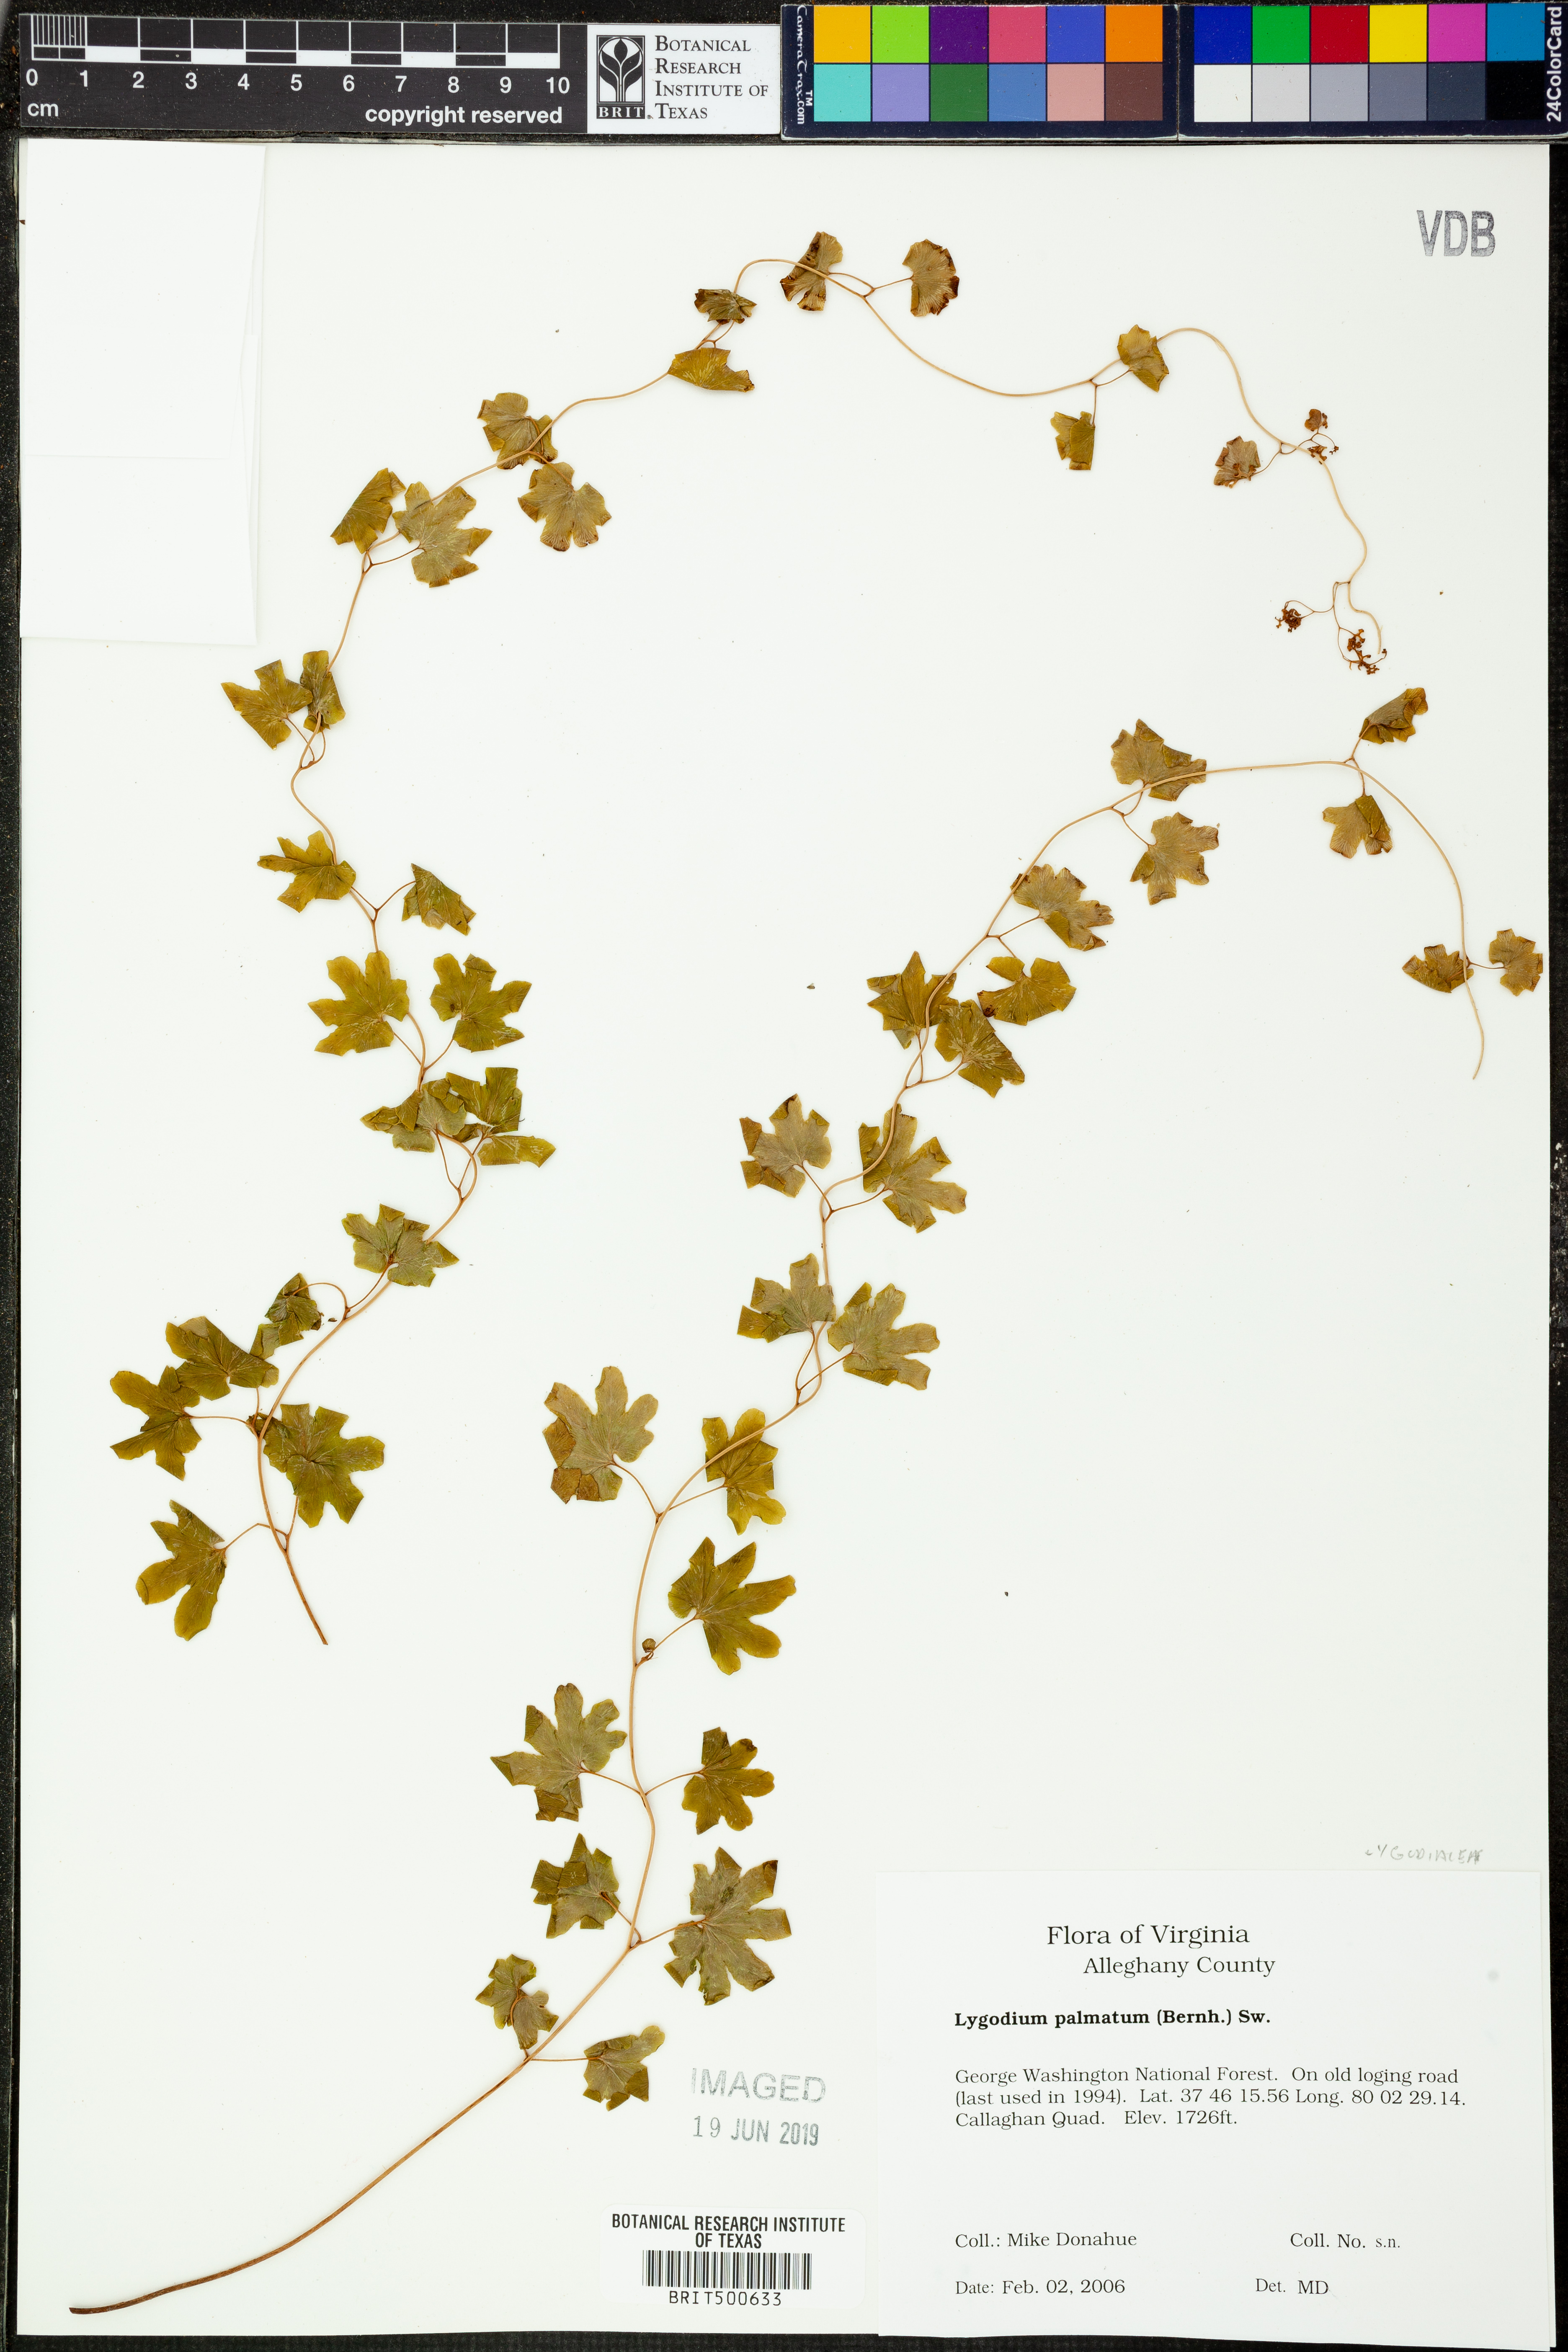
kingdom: Plantae
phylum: Tracheophyta
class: Polypodiopsida
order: Schizaeales
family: Lygodiaceae
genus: Lygodium
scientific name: Lygodium palmatum
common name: American climbing fern
